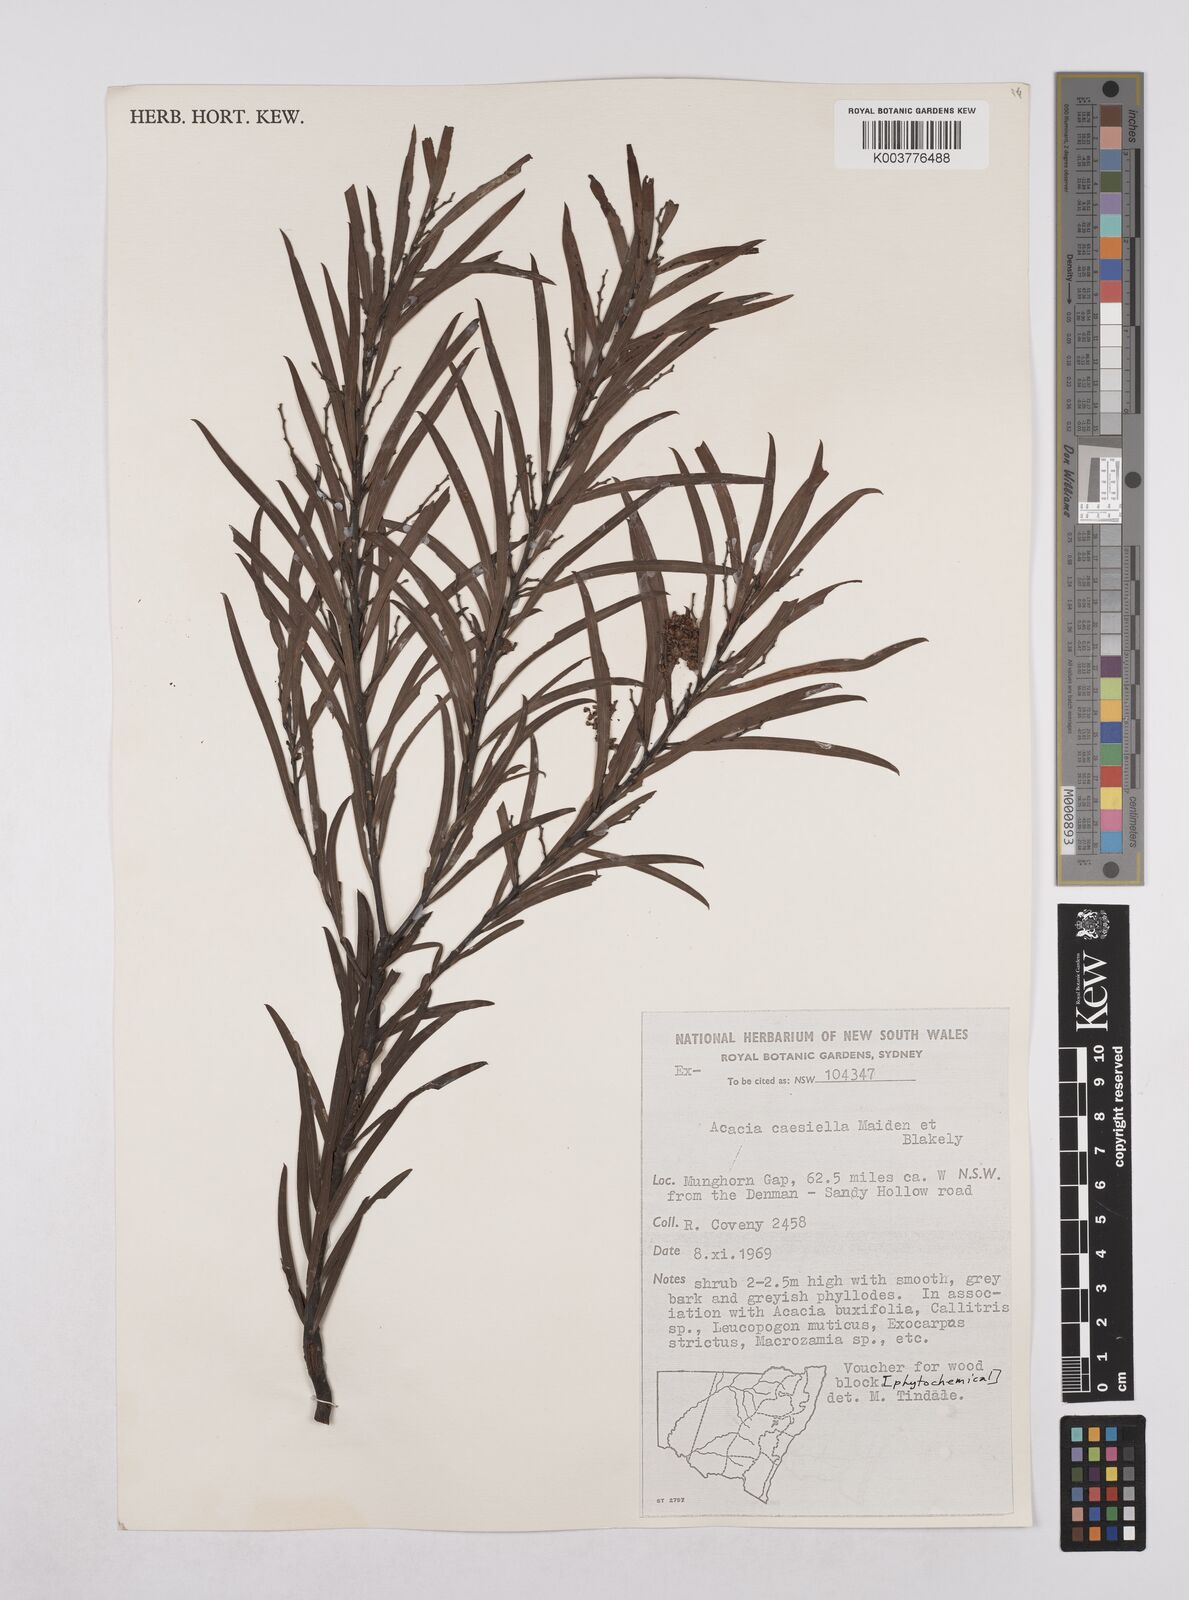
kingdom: Plantae
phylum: Tracheophyta
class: Magnoliopsida
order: Fabales
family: Fabaceae
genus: Acacia
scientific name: Acacia caesiella
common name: Tableland wattle
